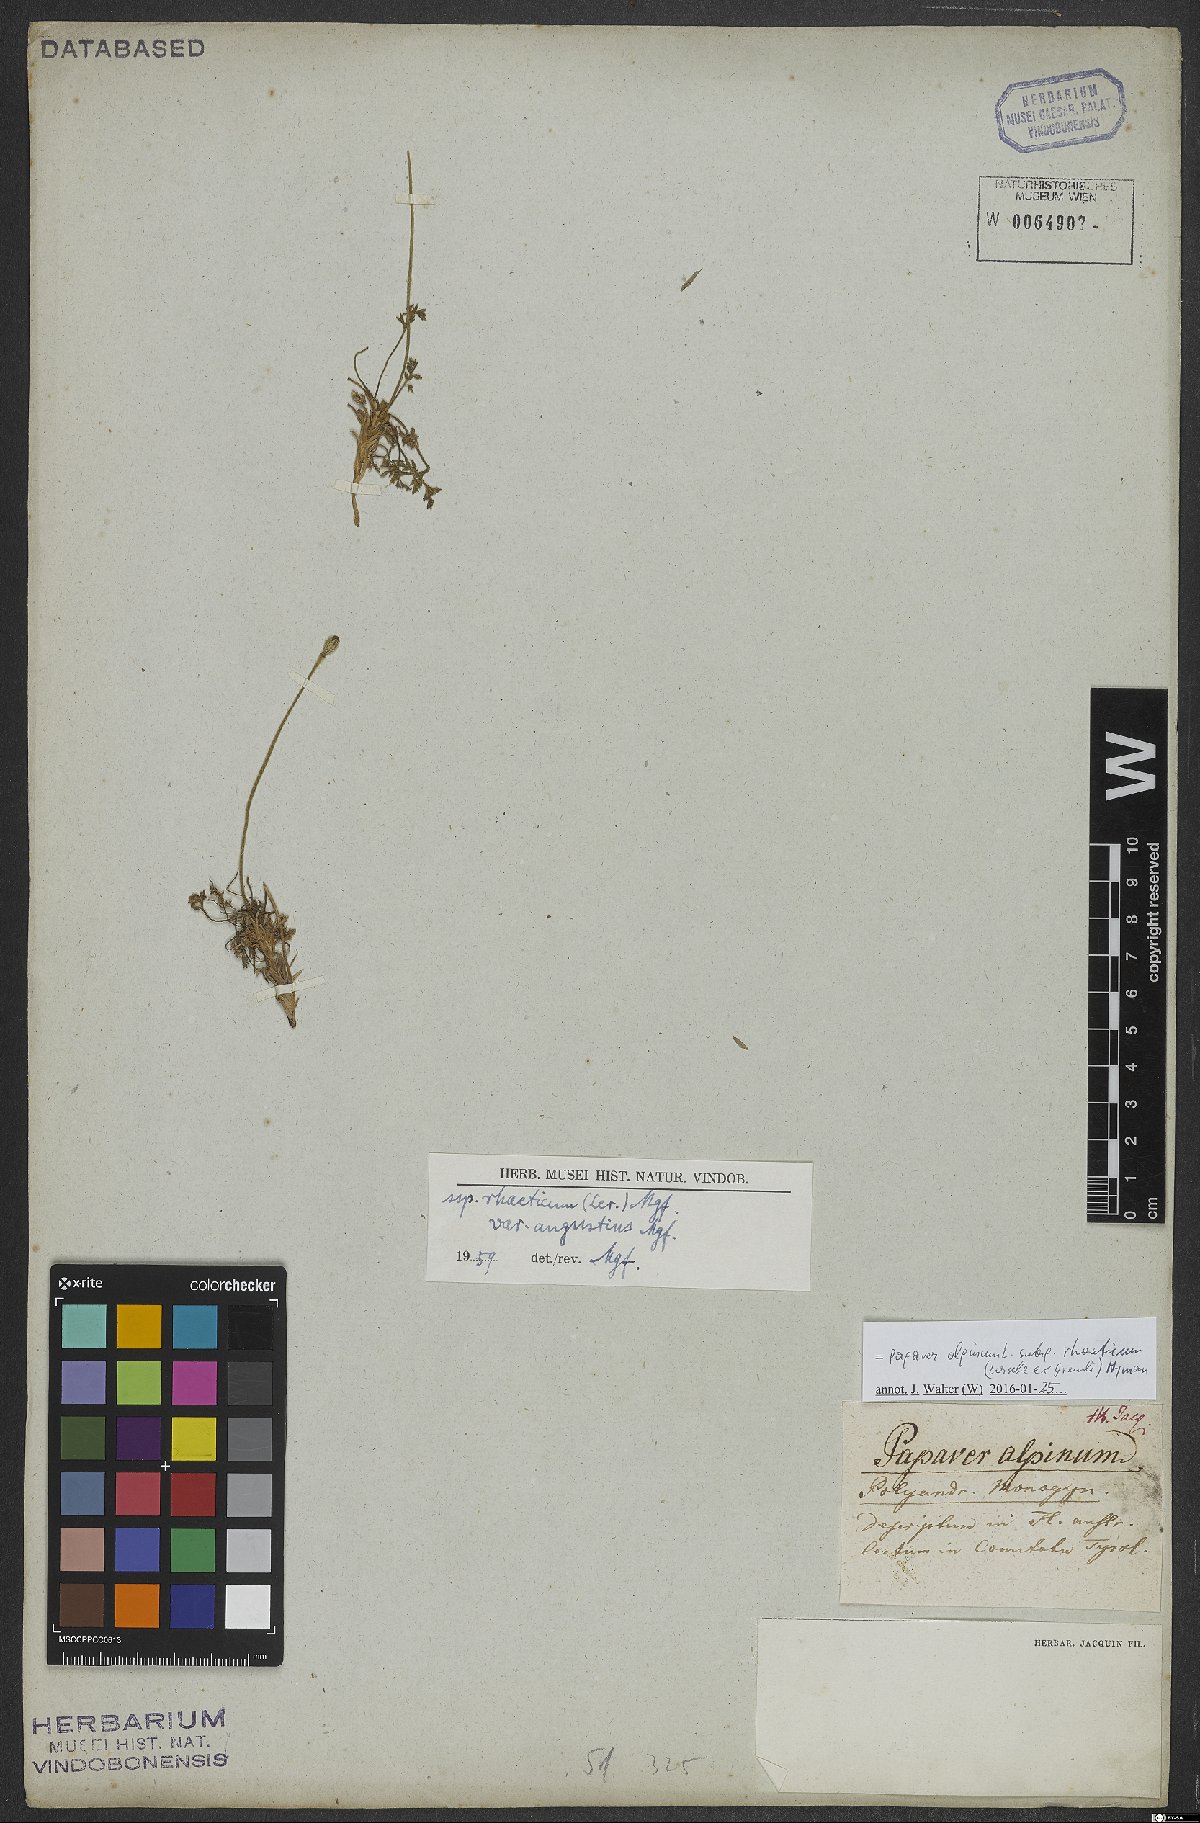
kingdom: Plantae
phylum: Tracheophyta
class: Magnoliopsida
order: Ranunculales
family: Papaveraceae
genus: Papaver
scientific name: Papaver alpinum
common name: Austrian poppy
